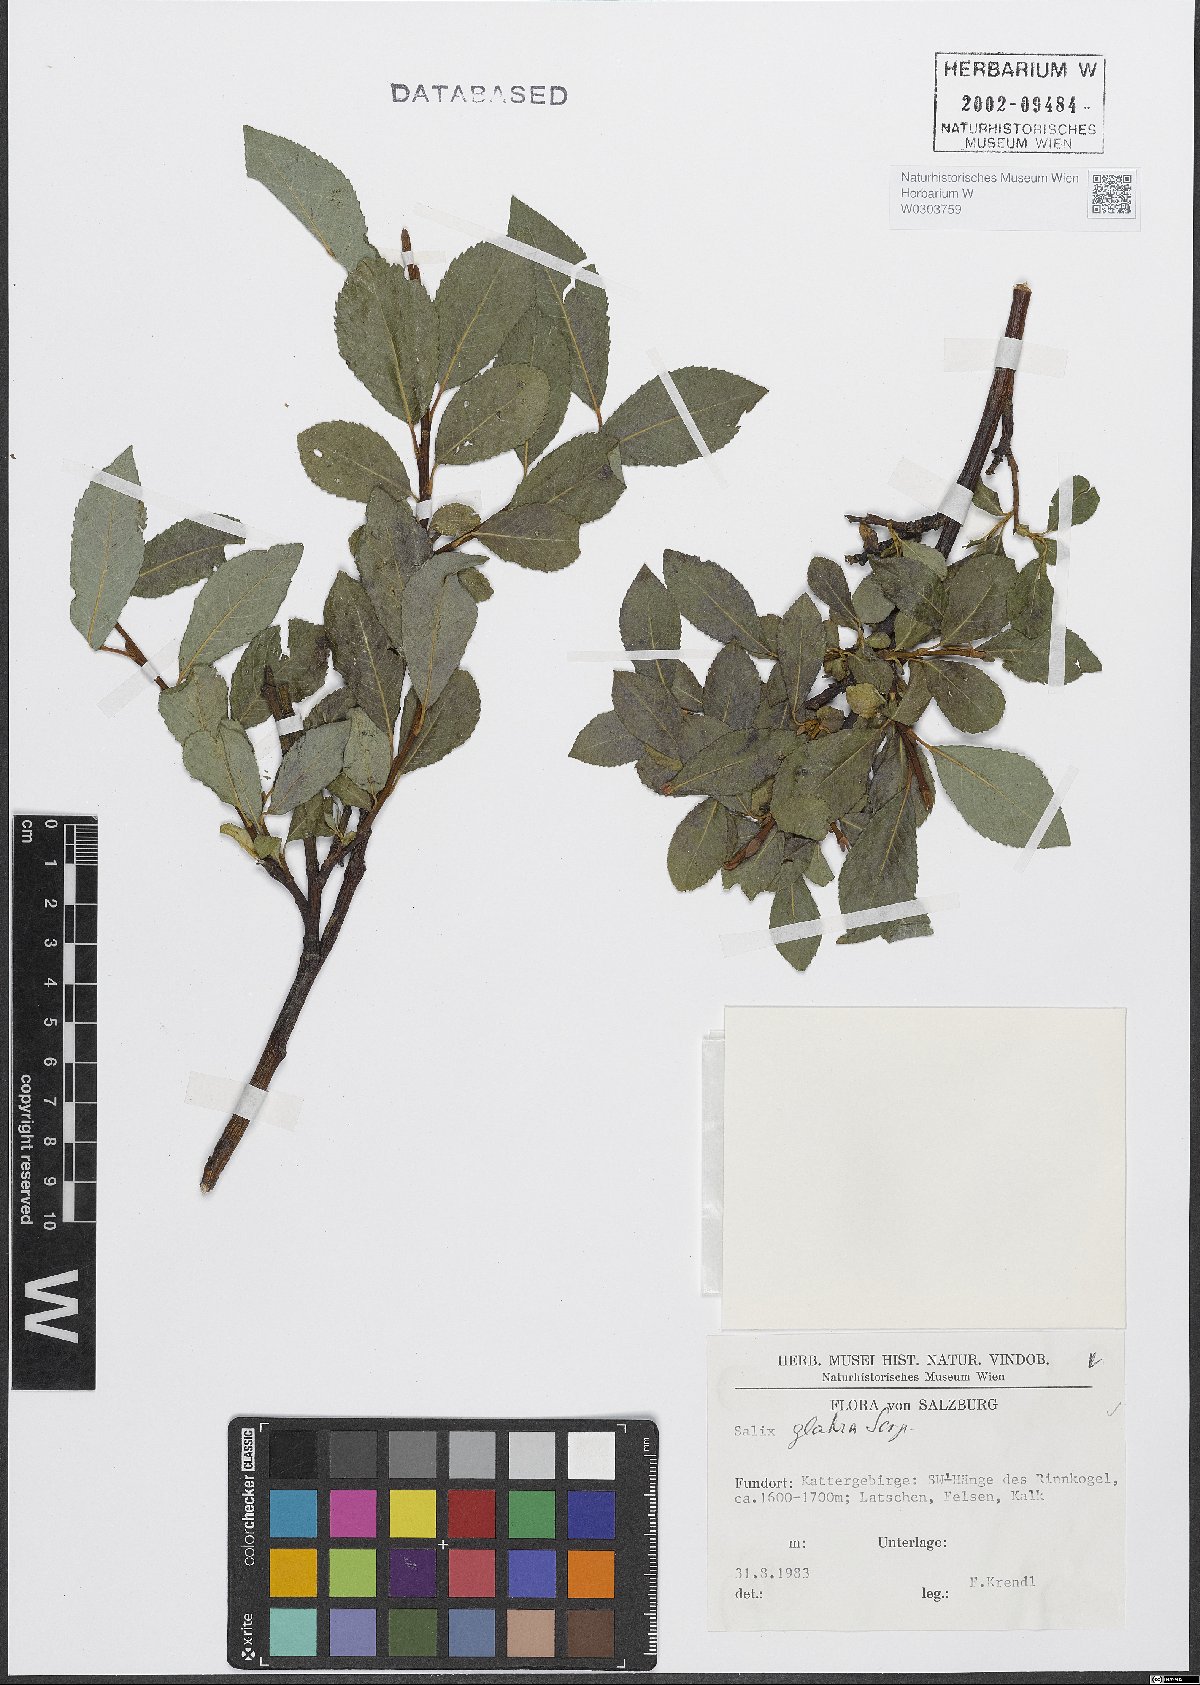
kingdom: Plantae
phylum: Tracheophyta
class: Magnoliopsida
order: Malpighiales
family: Salicaceae
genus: Salix
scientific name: Salix glabra
